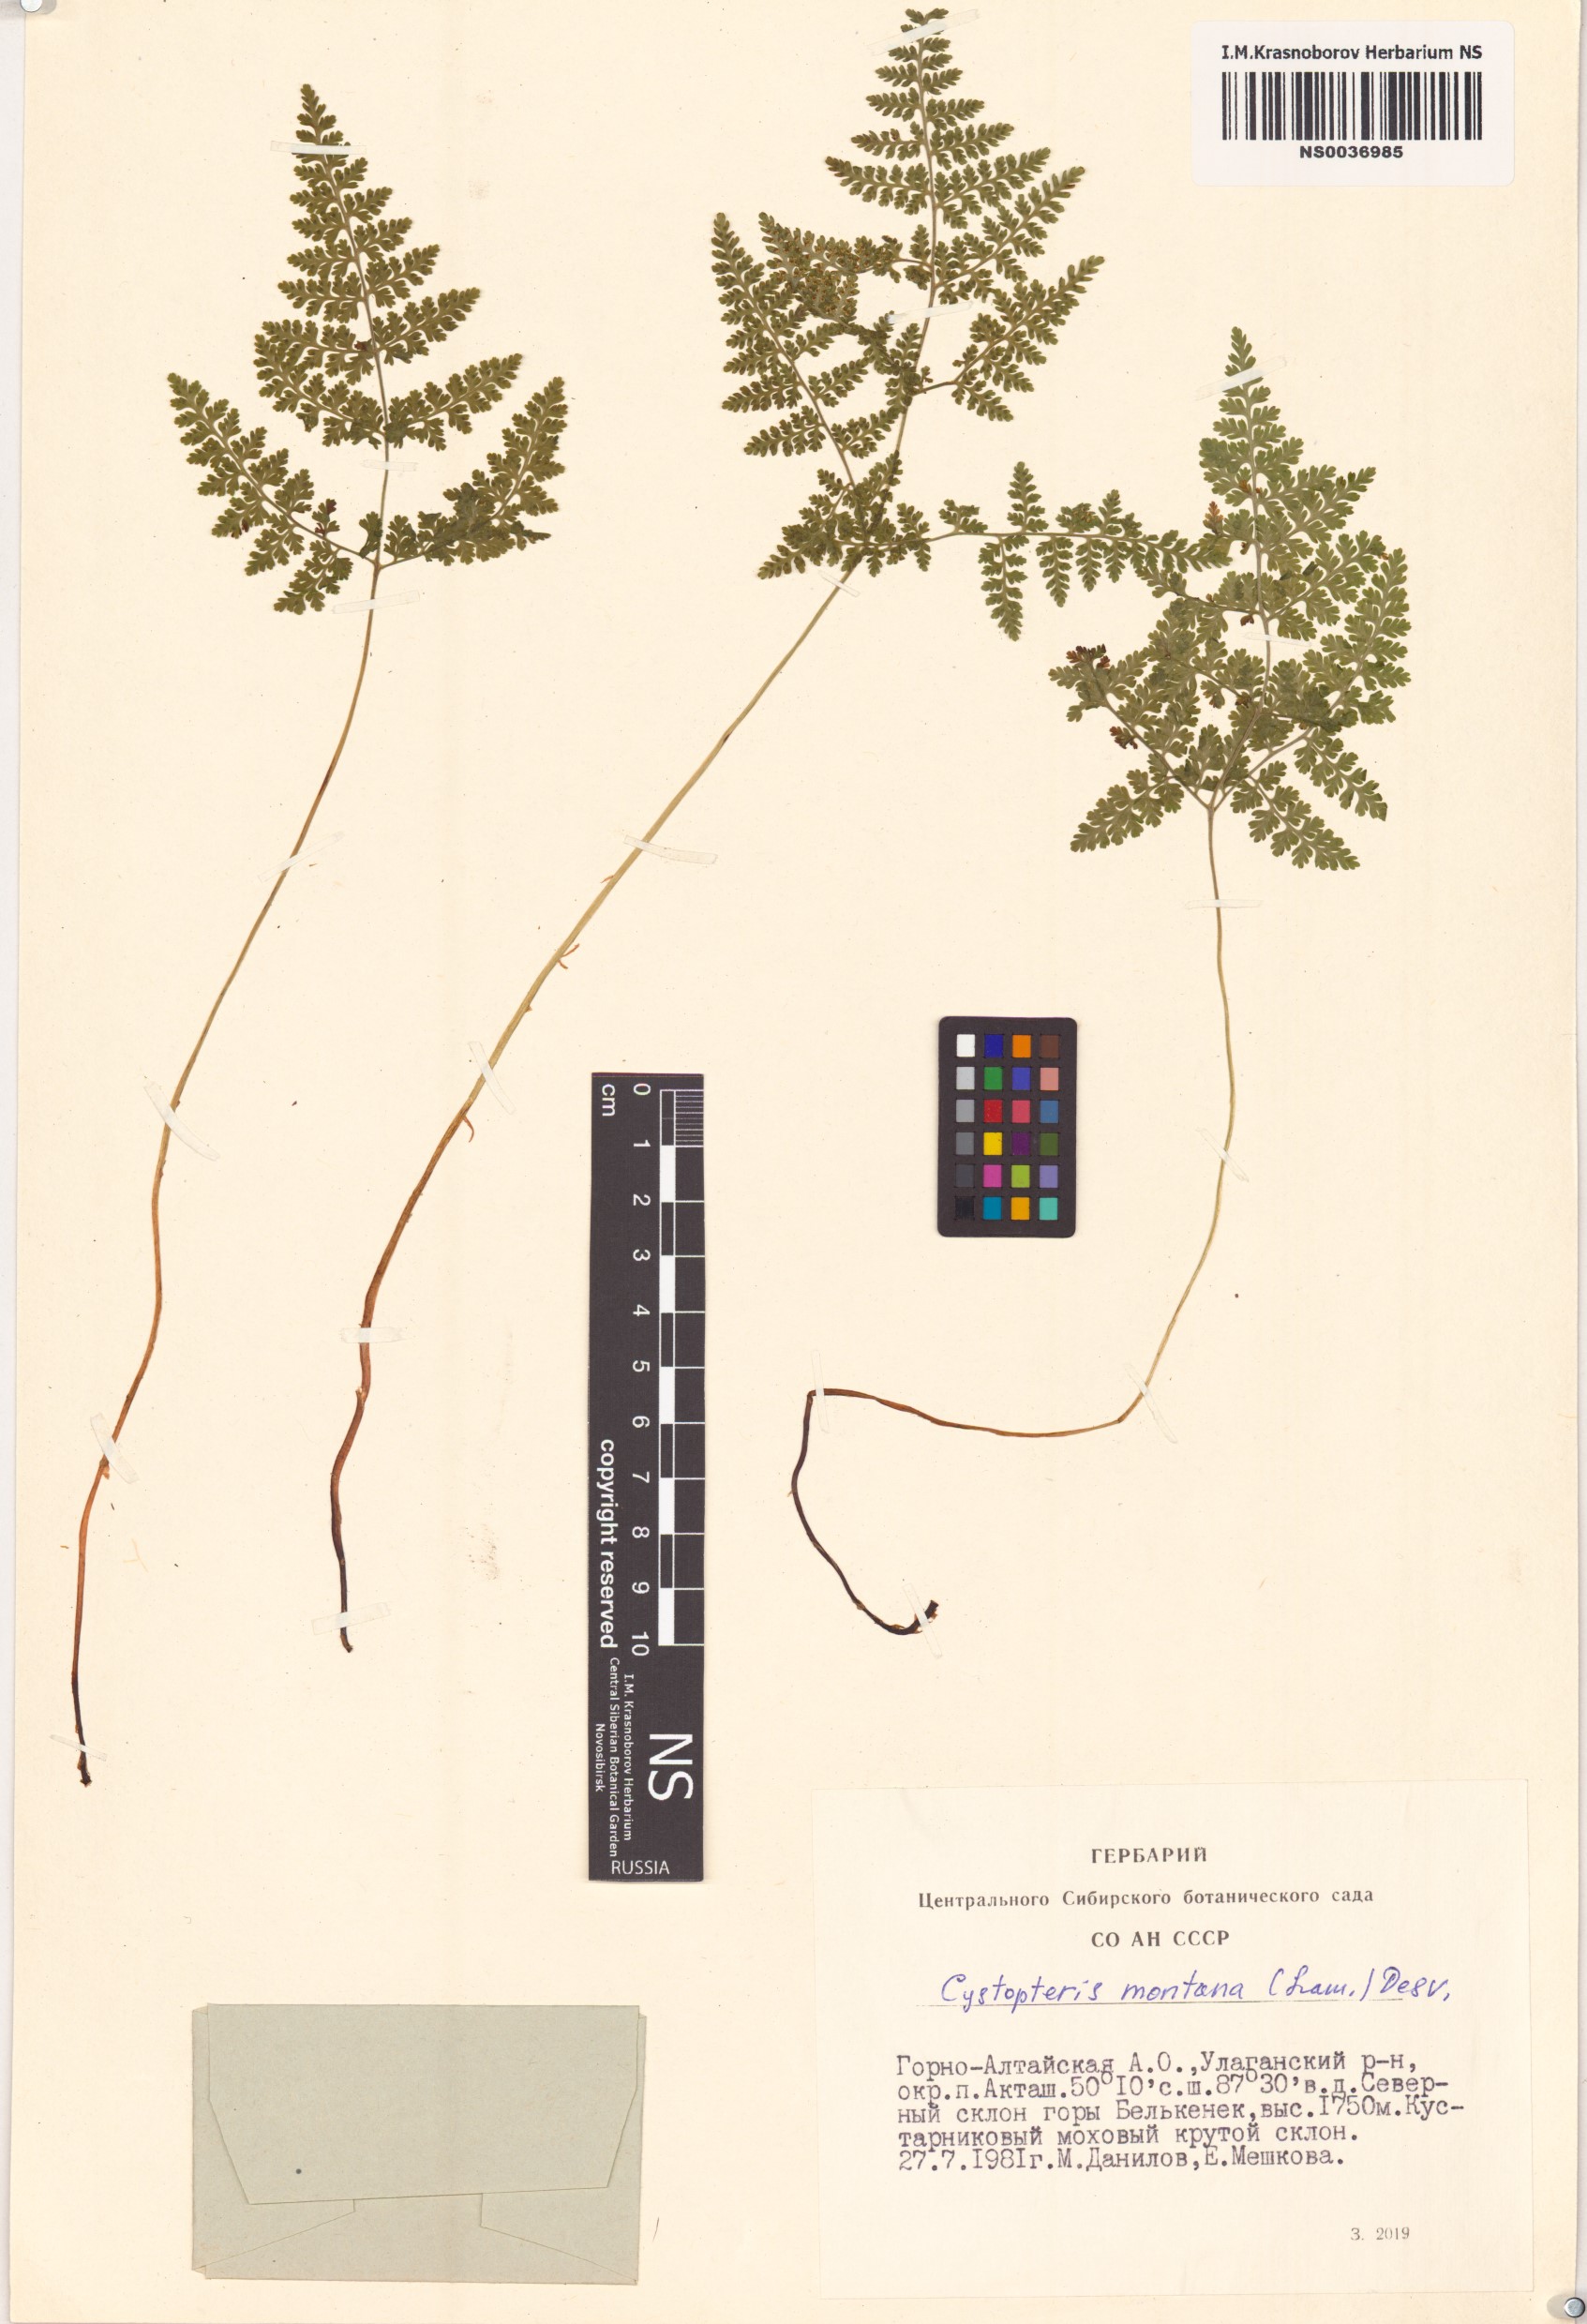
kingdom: Plantae
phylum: Tracheophyta
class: Polypodiopsida
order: Polypodiales
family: Cystopteridaceae
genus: Cystopteris
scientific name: Cystopteris montana
